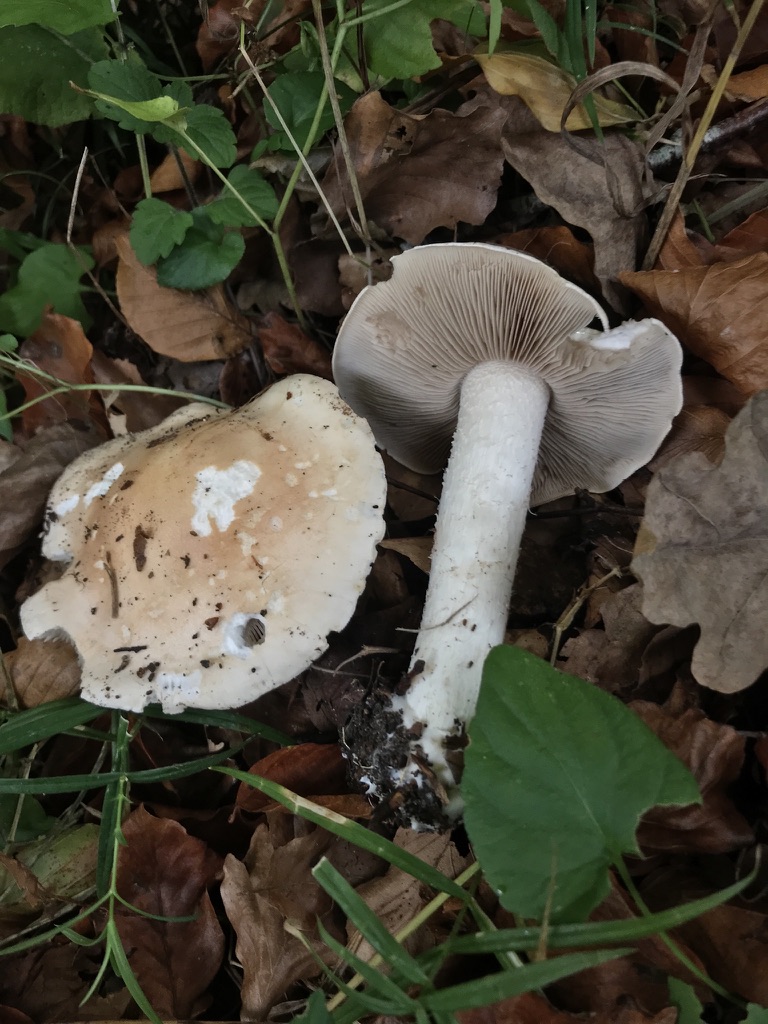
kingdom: Fungi
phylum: Basidiomycota
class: Agaricomycetes
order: Agaricales
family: Hymenogastraceae
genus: Hebeloma
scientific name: Hebeloma sinapizans
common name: ræddike-tåreblad
